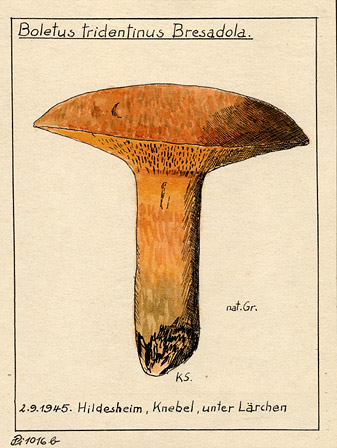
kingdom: Fungi
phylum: Basidiomycota
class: Agaricomycetes
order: Boletales
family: Suillaceae
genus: Suillus
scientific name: Suillus tridentinus
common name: Orange larch bolete
